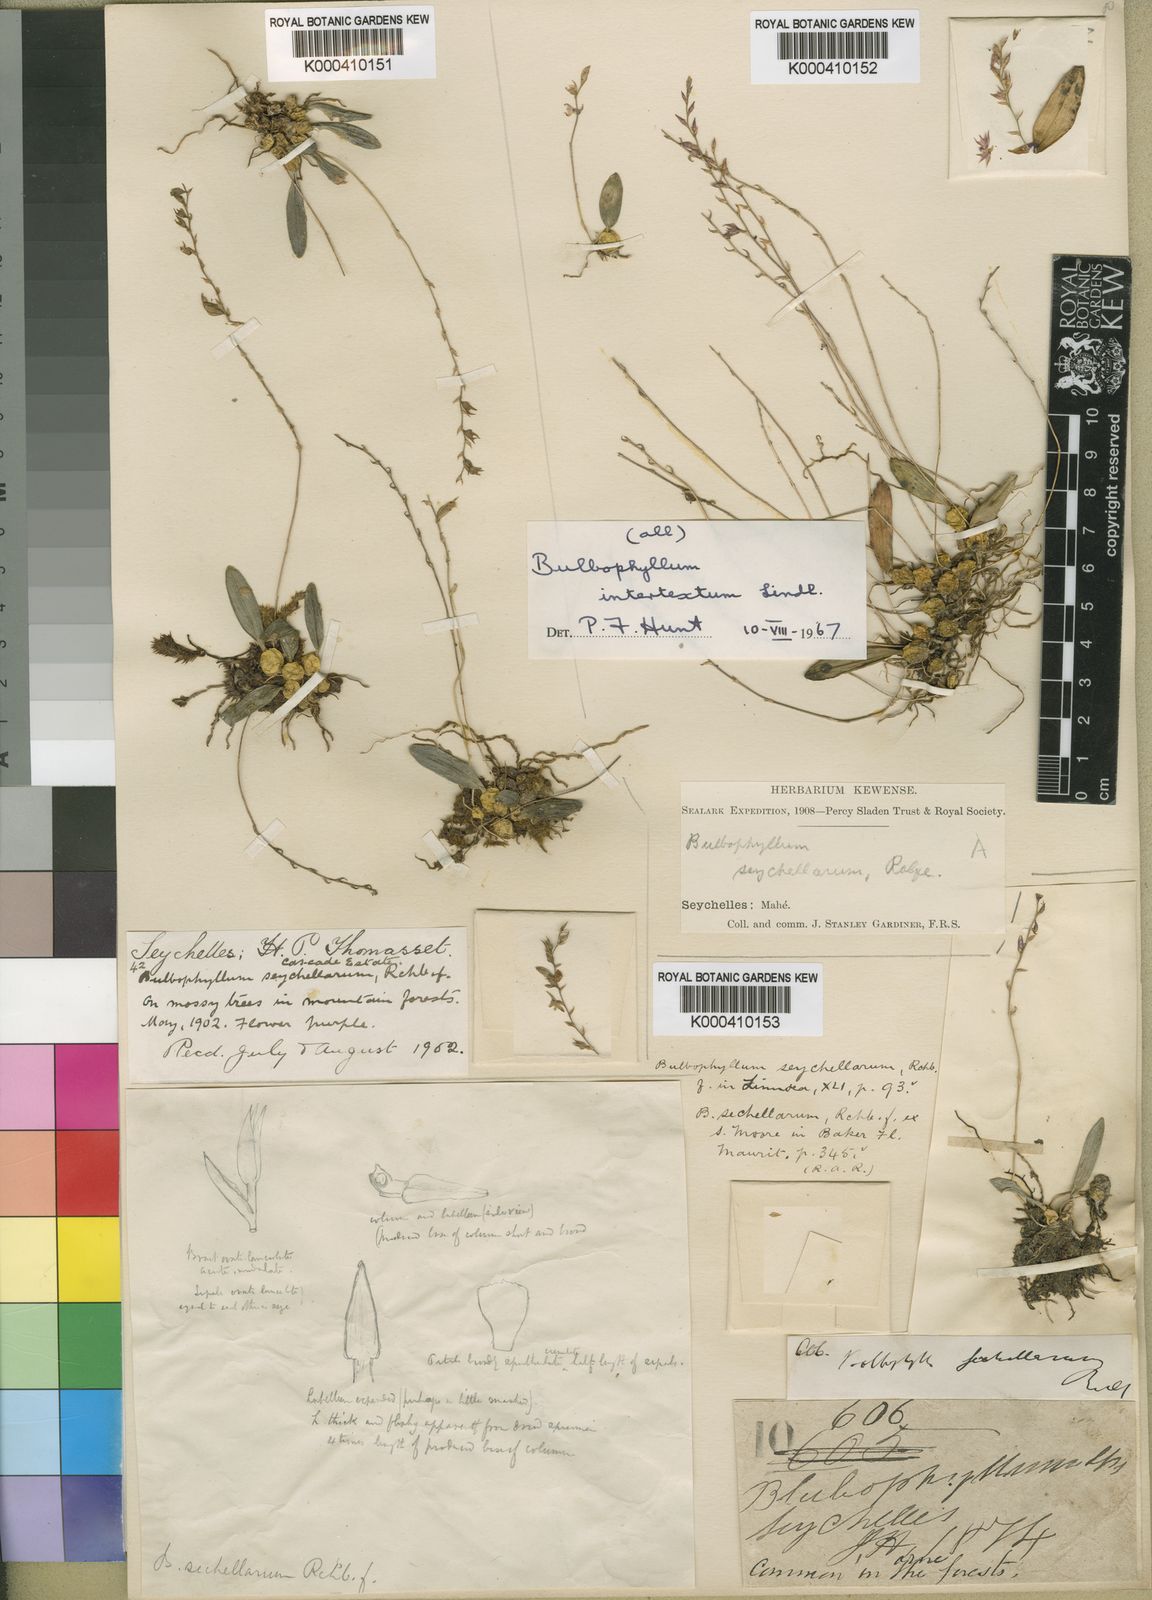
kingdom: Plantae
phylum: Tracheophyta
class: Liliopsida
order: Asparagales
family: Orchidaceae
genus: Bulbophyllum
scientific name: Bulbophyllum intertextum
